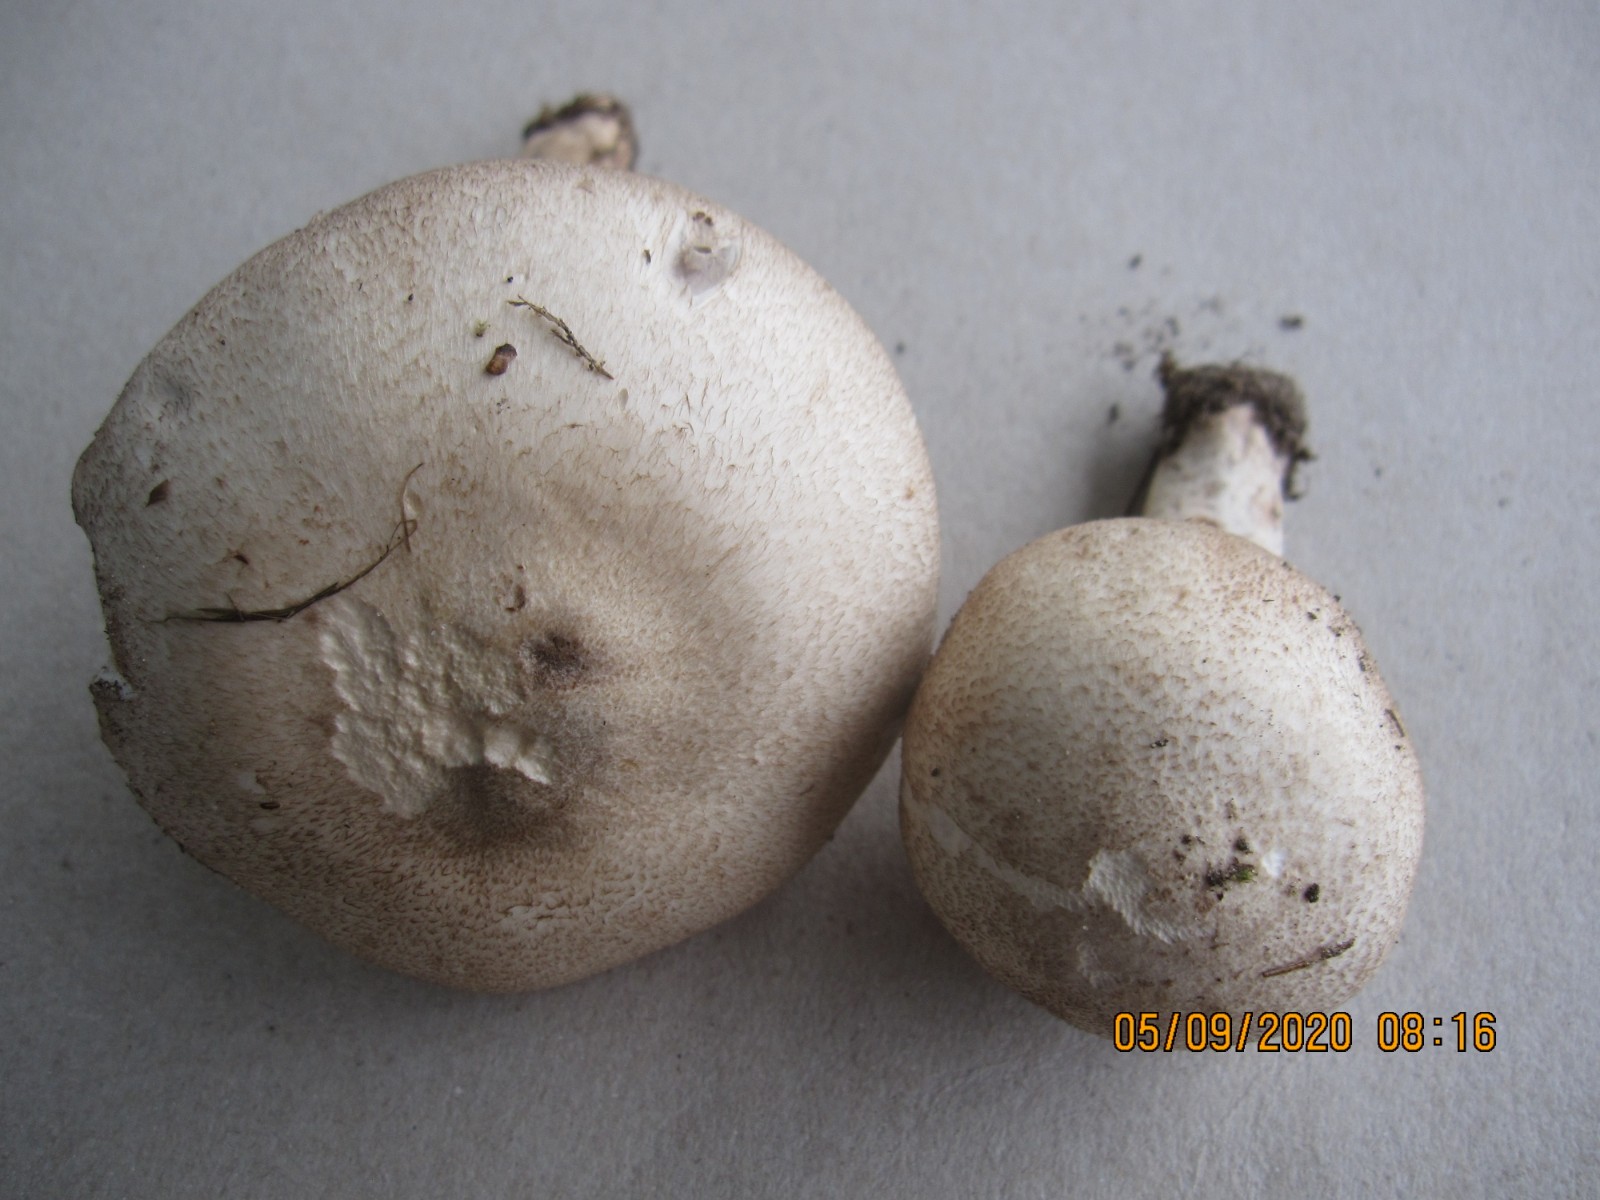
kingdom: Fungi
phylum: Basidiomycota
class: Agaricomycetes
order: Agaricales
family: Agaricaceae
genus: Agaricus
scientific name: Agaricus depauperatus
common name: finskællet champignon
